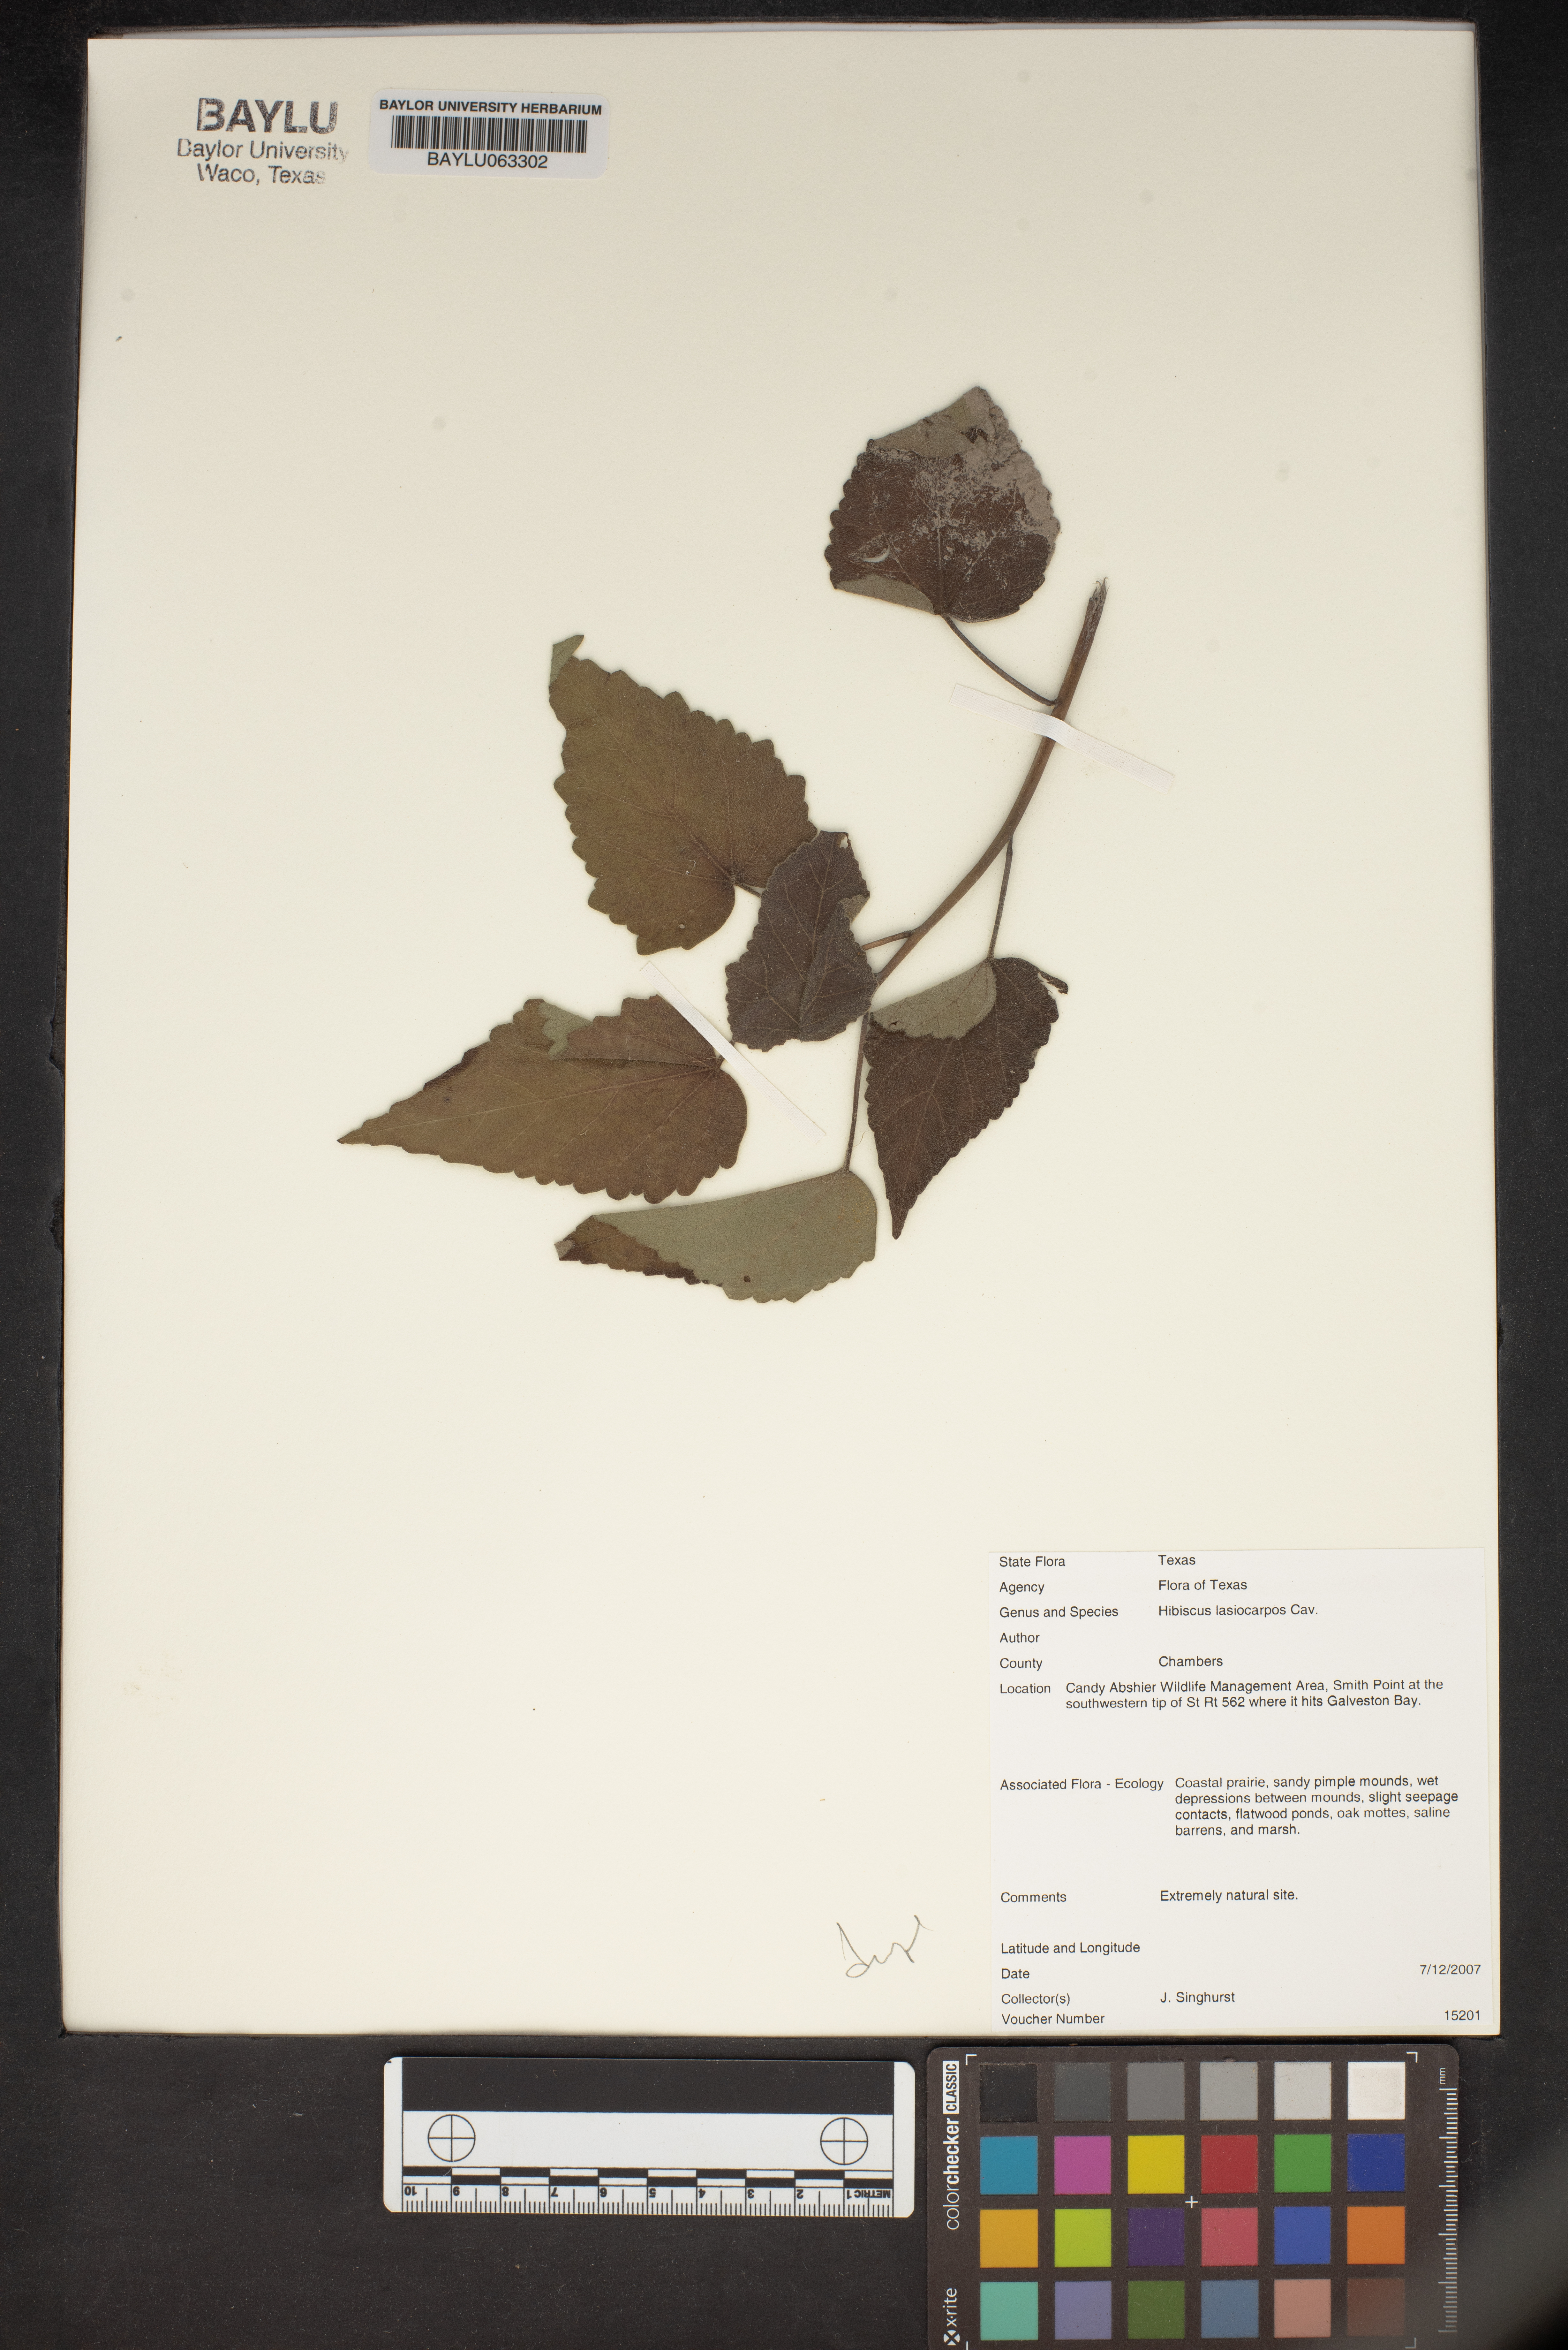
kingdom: Plantae
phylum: Tracheophyta
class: Magnoliopsida
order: Malvales
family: Malvaceae
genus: Hibiscus
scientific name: Hibiscus moscheutos
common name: Common rose-mallow
